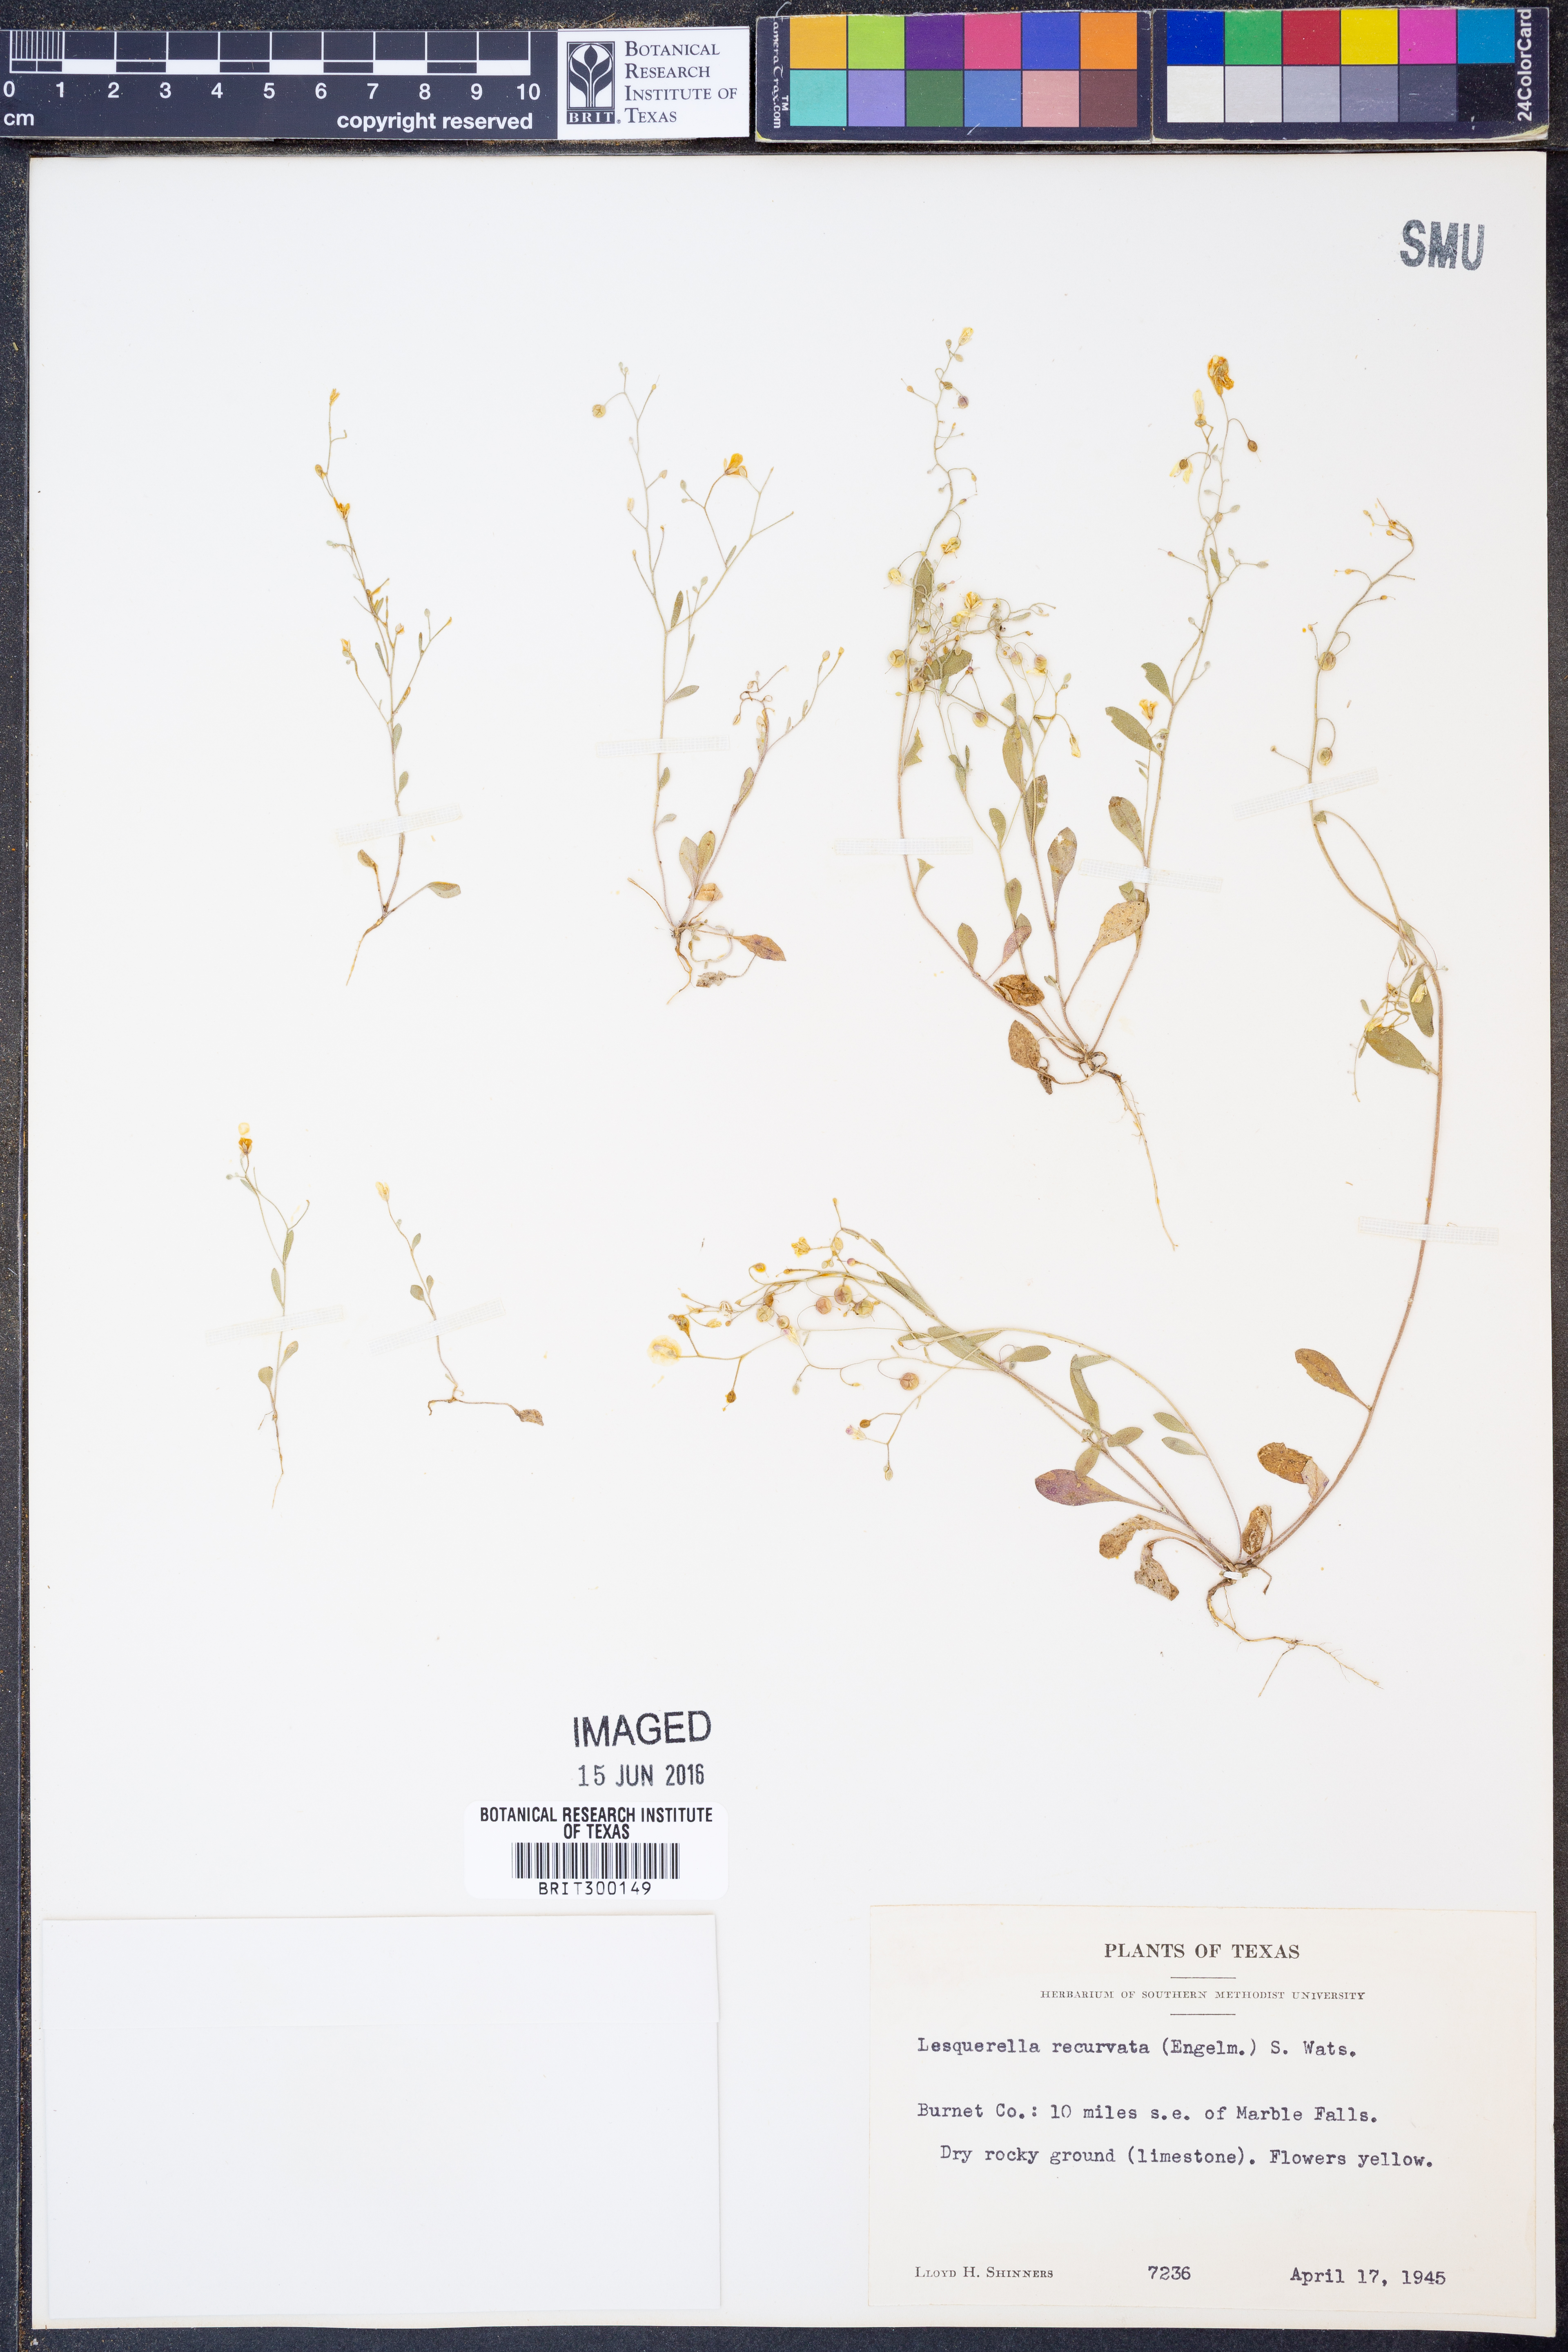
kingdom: Plantae
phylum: Tracheophyta
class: Magnoliopsida
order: Brassicales
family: Brassicaceae
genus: Physaria
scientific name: Physaria recurvata
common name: Gaslight bladderpod
